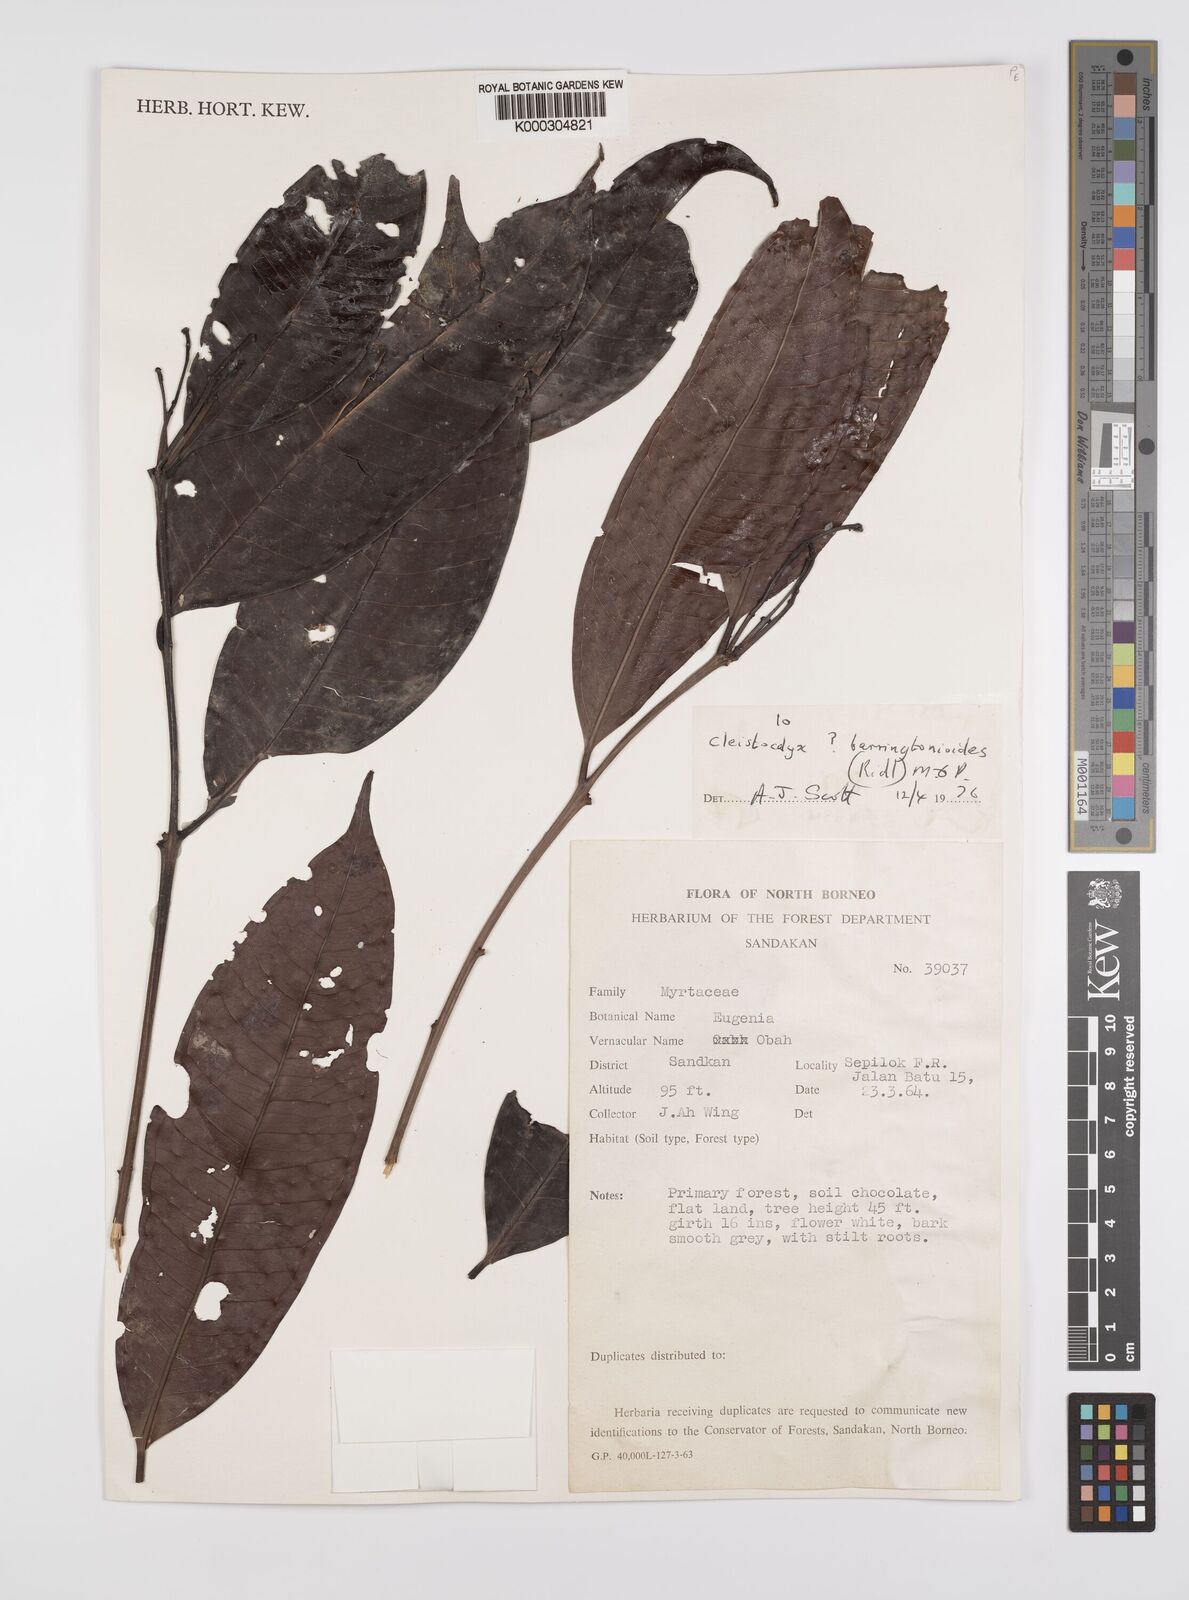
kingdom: Plantae
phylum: Tracheophyta
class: Magnoliopsida
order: Myrtales
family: Myrtaceae
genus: Syzygium
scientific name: Syzygium barringtonioides
